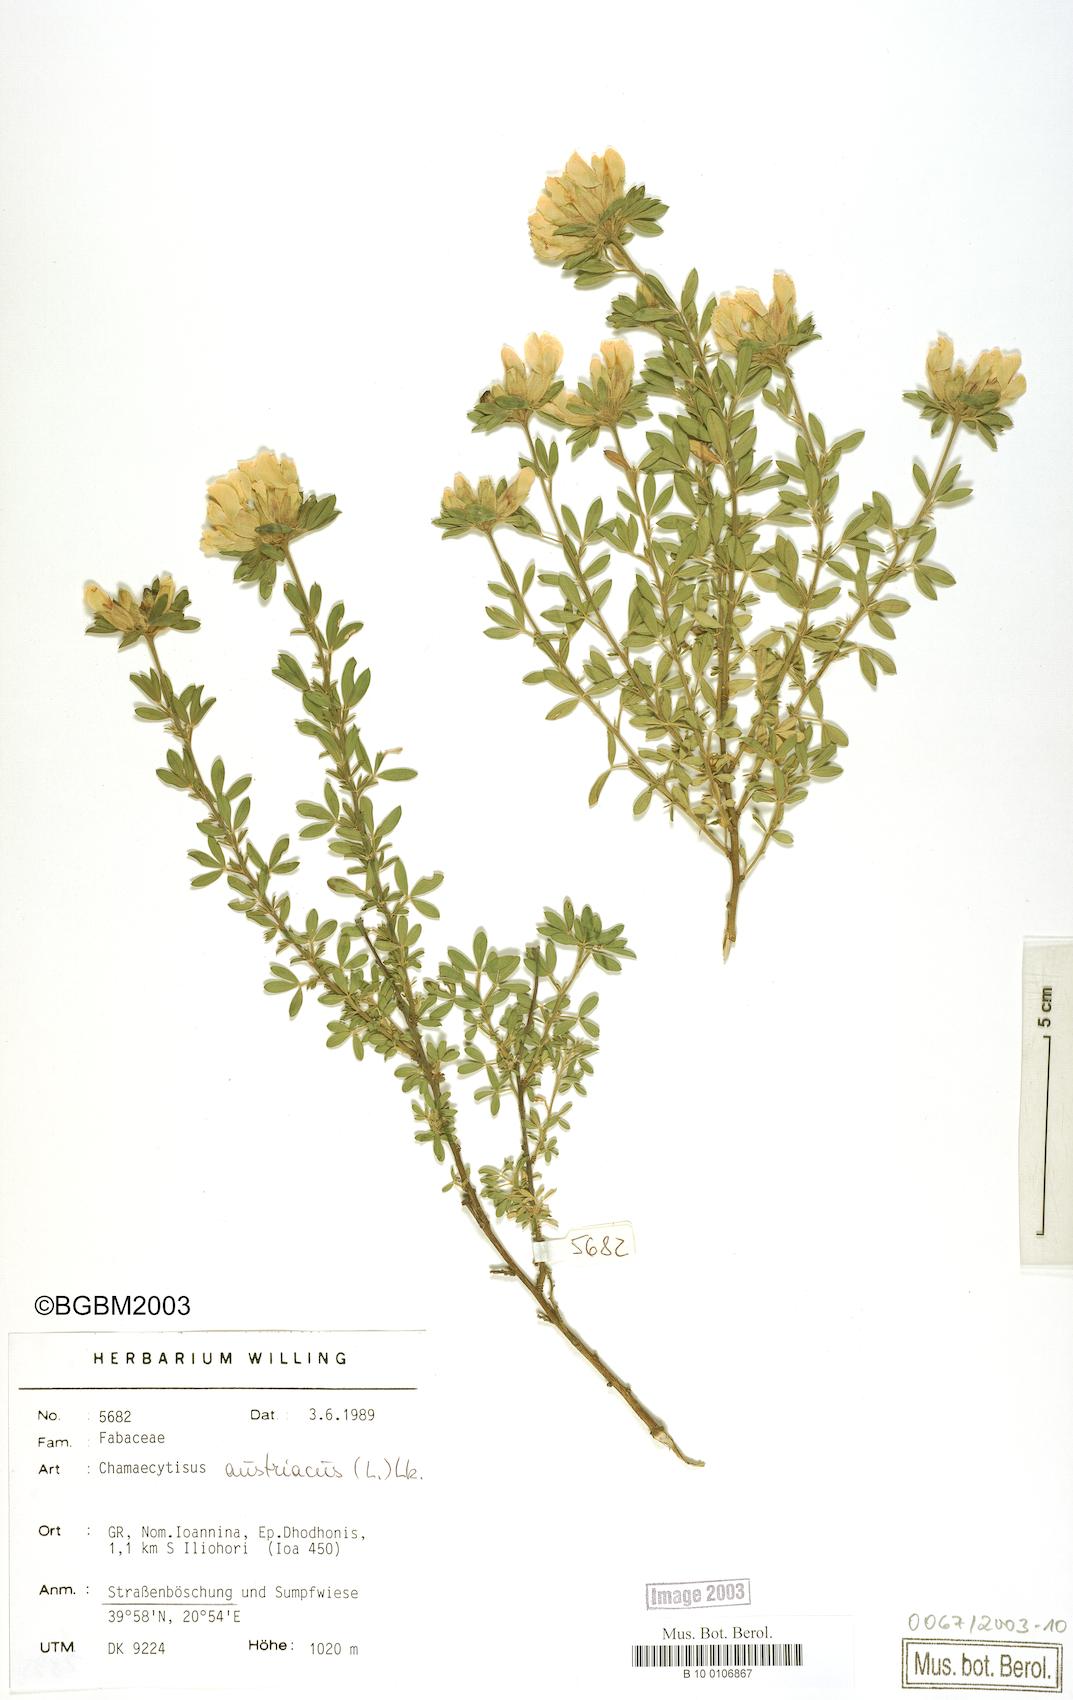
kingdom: Plantae
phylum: Tracheophyta
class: Magnoliopsida
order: Fabales
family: Fabaceae
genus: Chamaecytisus
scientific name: Chamaecytisus austriacus
